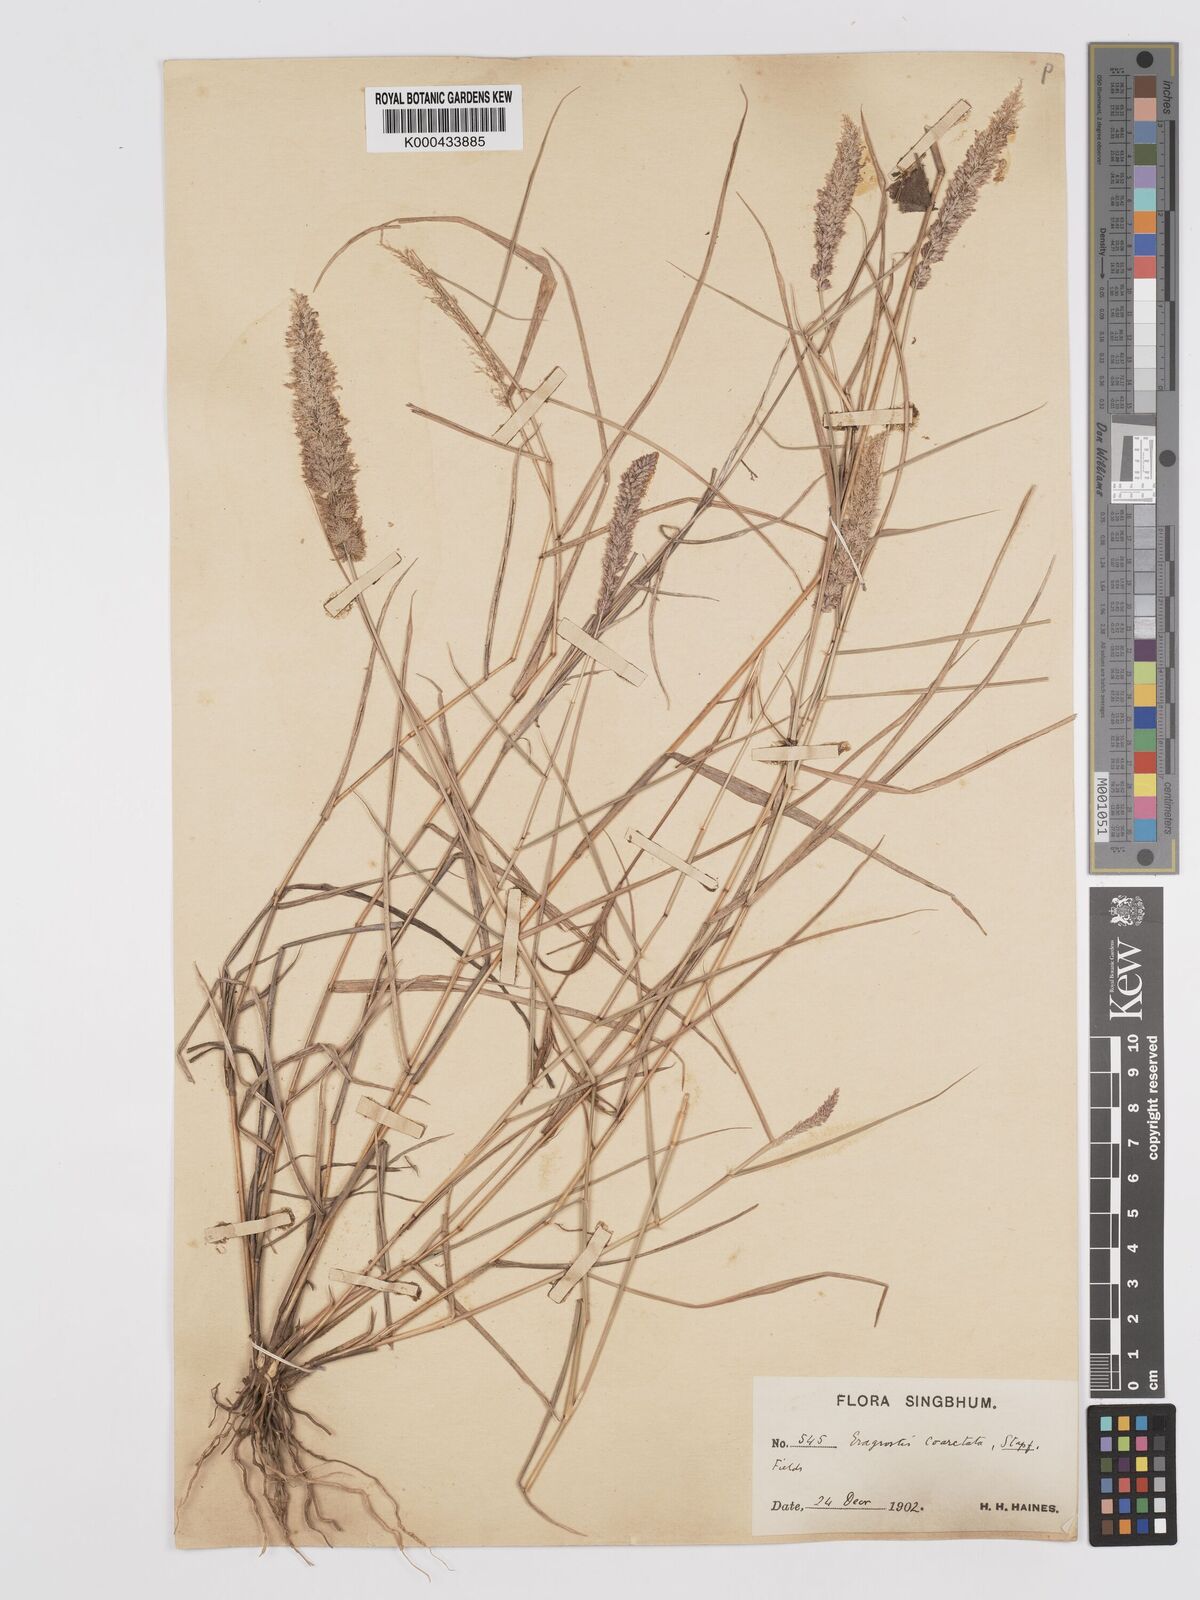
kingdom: Plantae
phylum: Tracheophyta
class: Liliopsida
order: Poales
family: Poaceae
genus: Eragrostis
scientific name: Eragrostis coarctata
